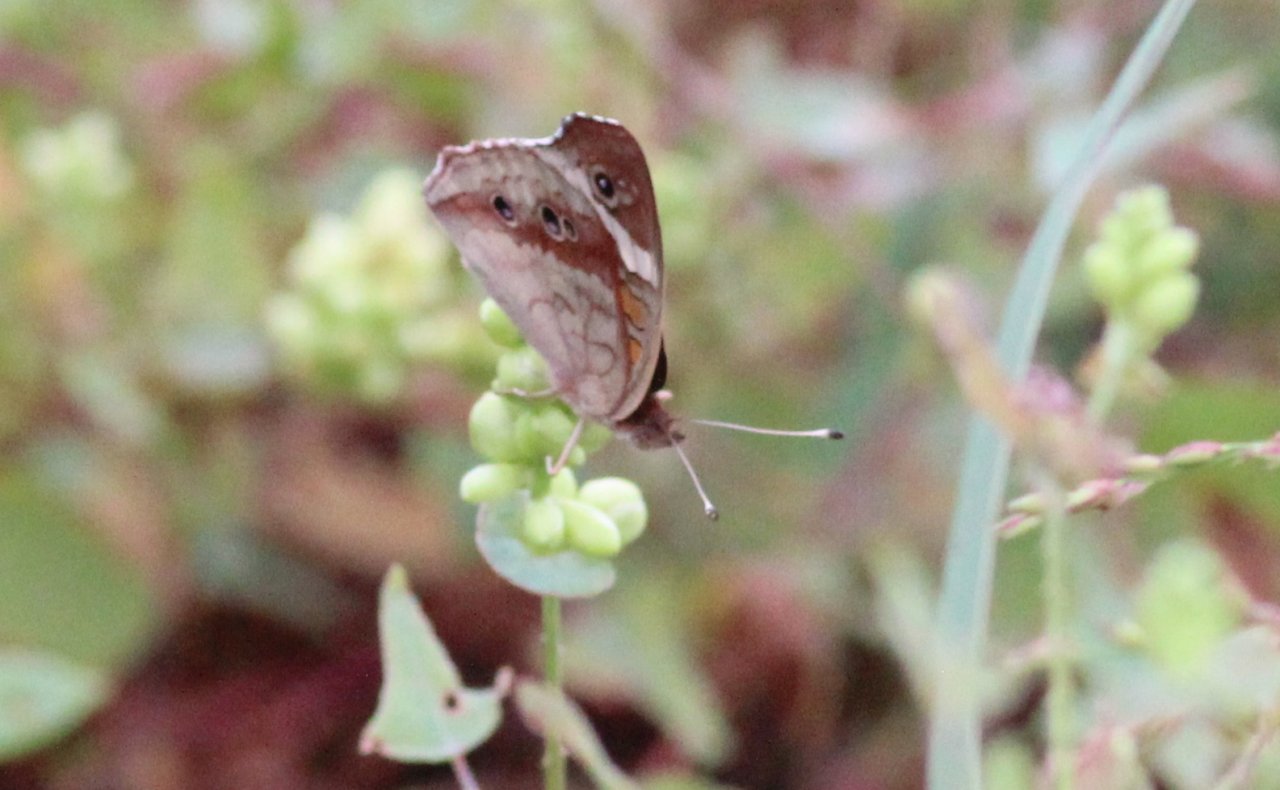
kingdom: Animalia
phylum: Arthropoda
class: Insecta
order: Lepidoptera
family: Nymphalidae
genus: Junonia
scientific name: Junonia coenia
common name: Common Buckeye
